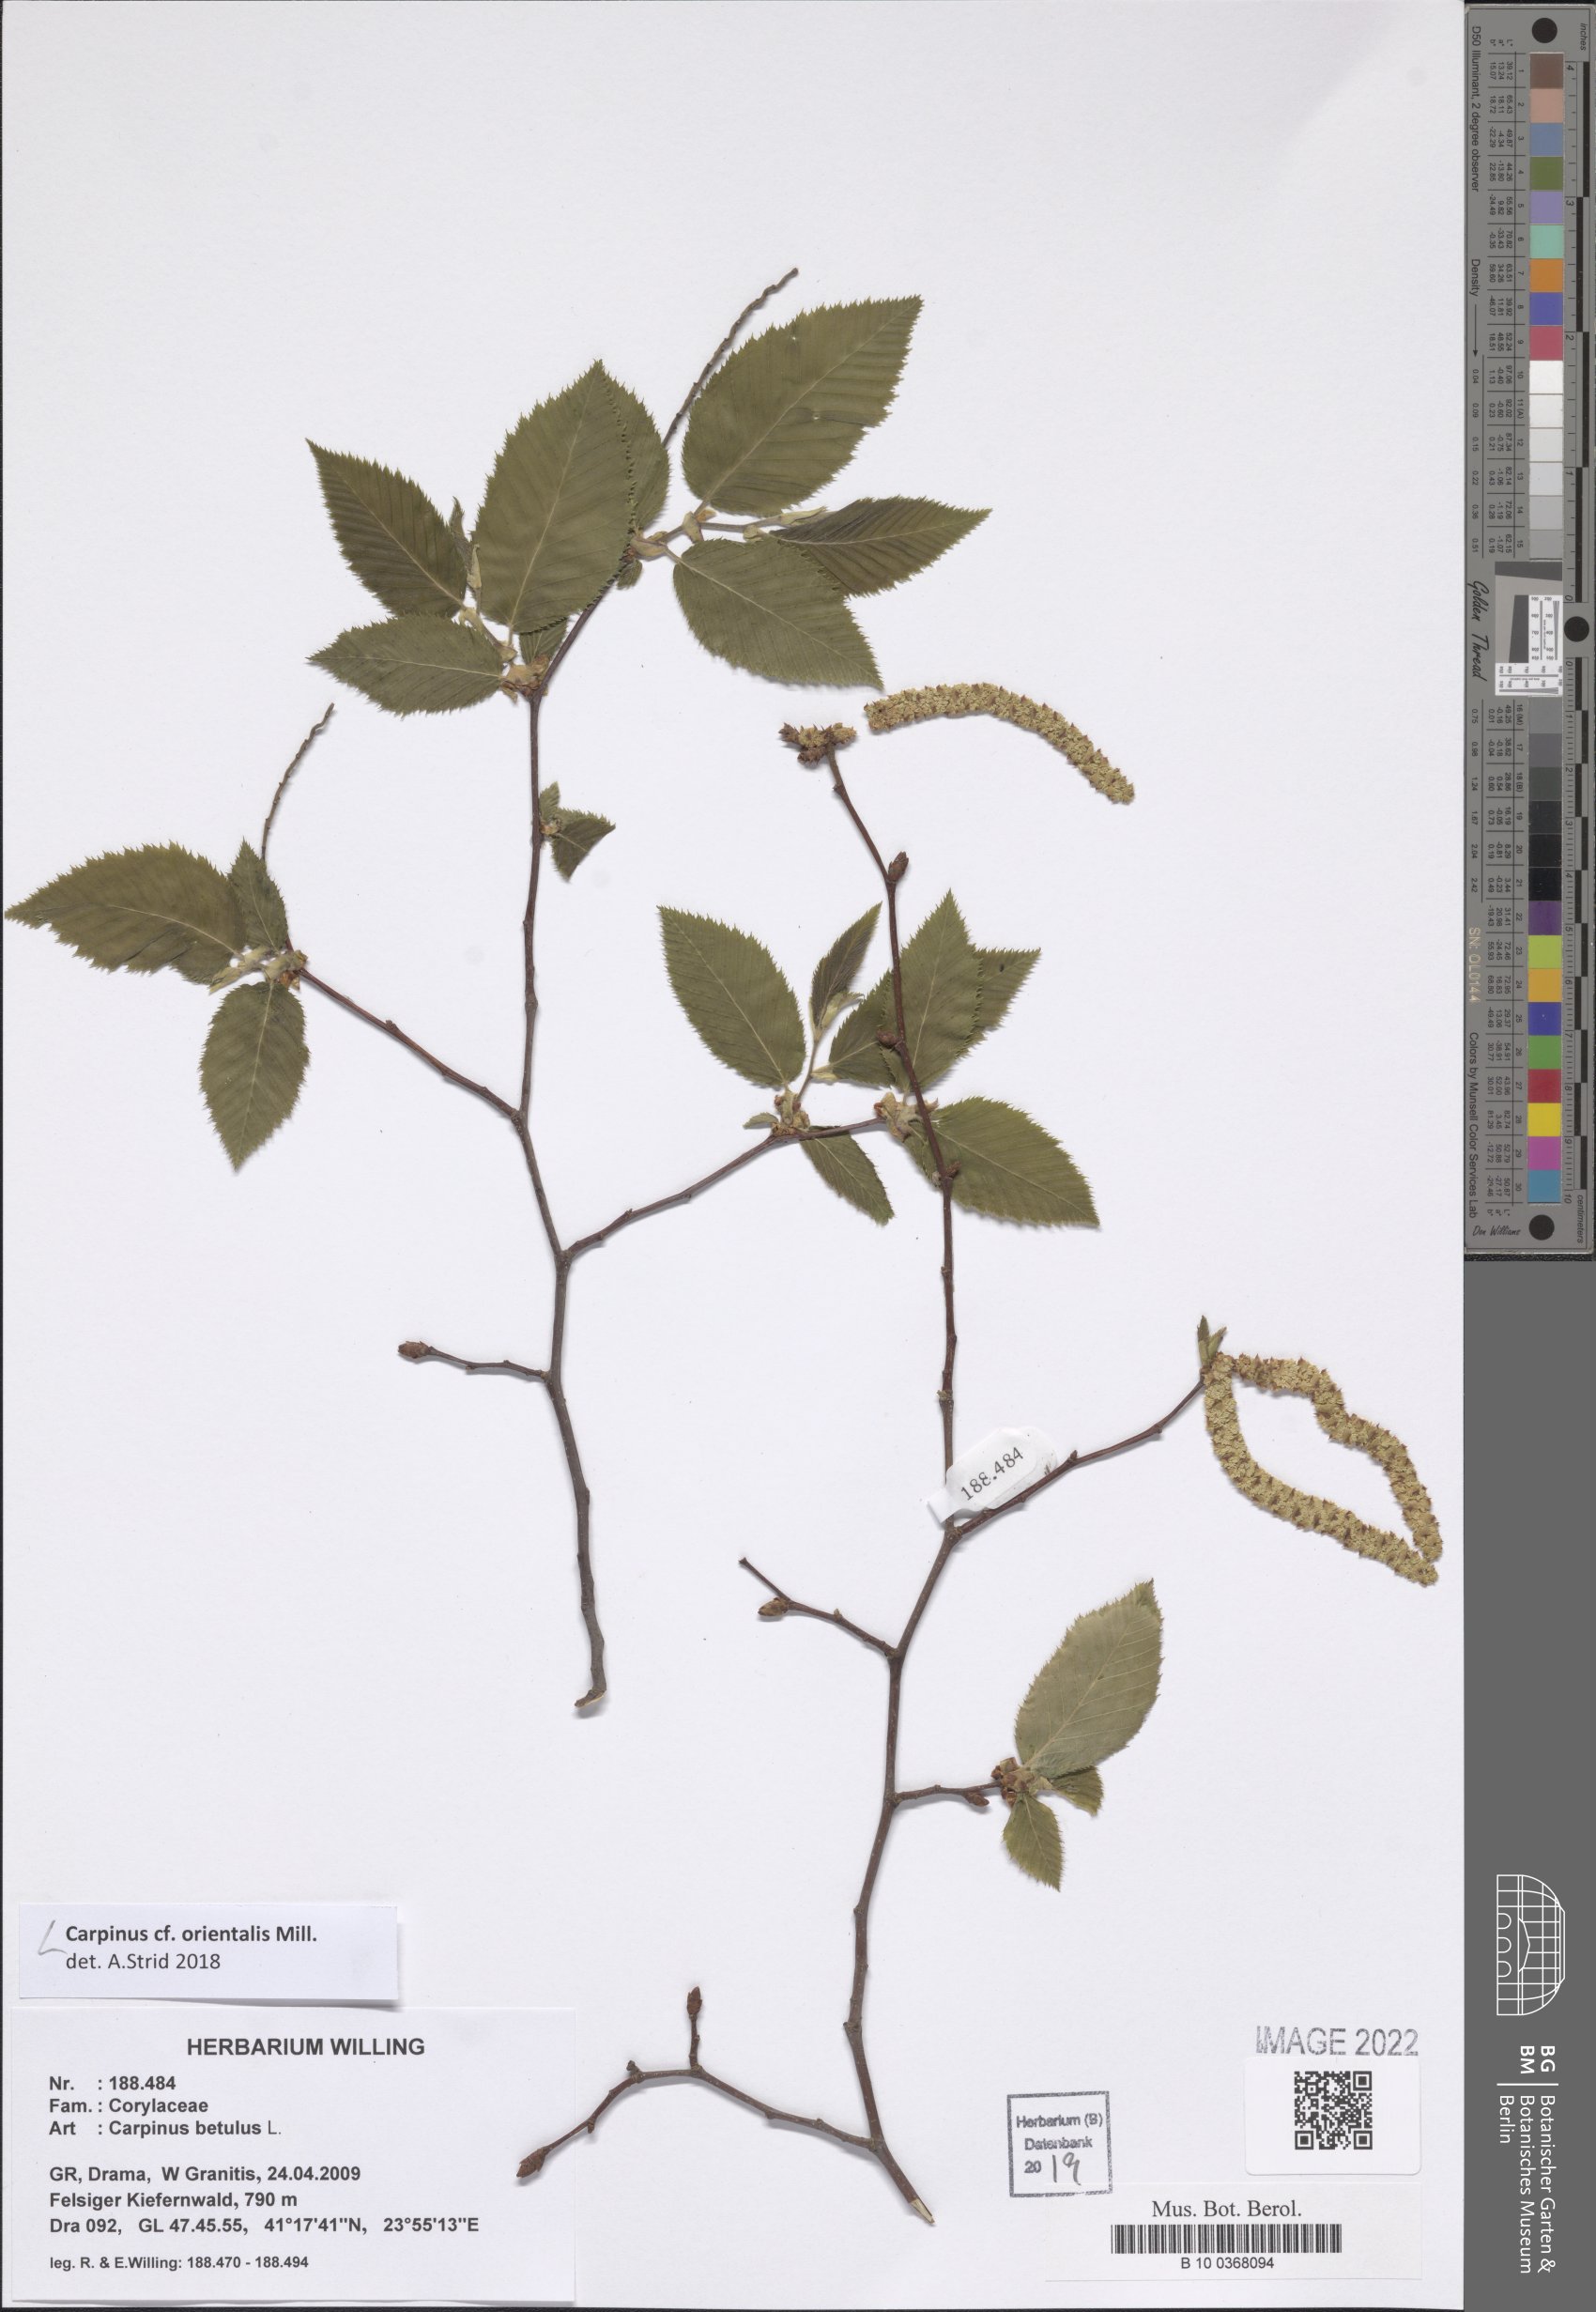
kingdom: Plantae
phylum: Tracheophyta
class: Magnoliopsida
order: Fagales
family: Betulaceae
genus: Carpinus
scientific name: Carpinus orientalis
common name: Eastern hornbeam
